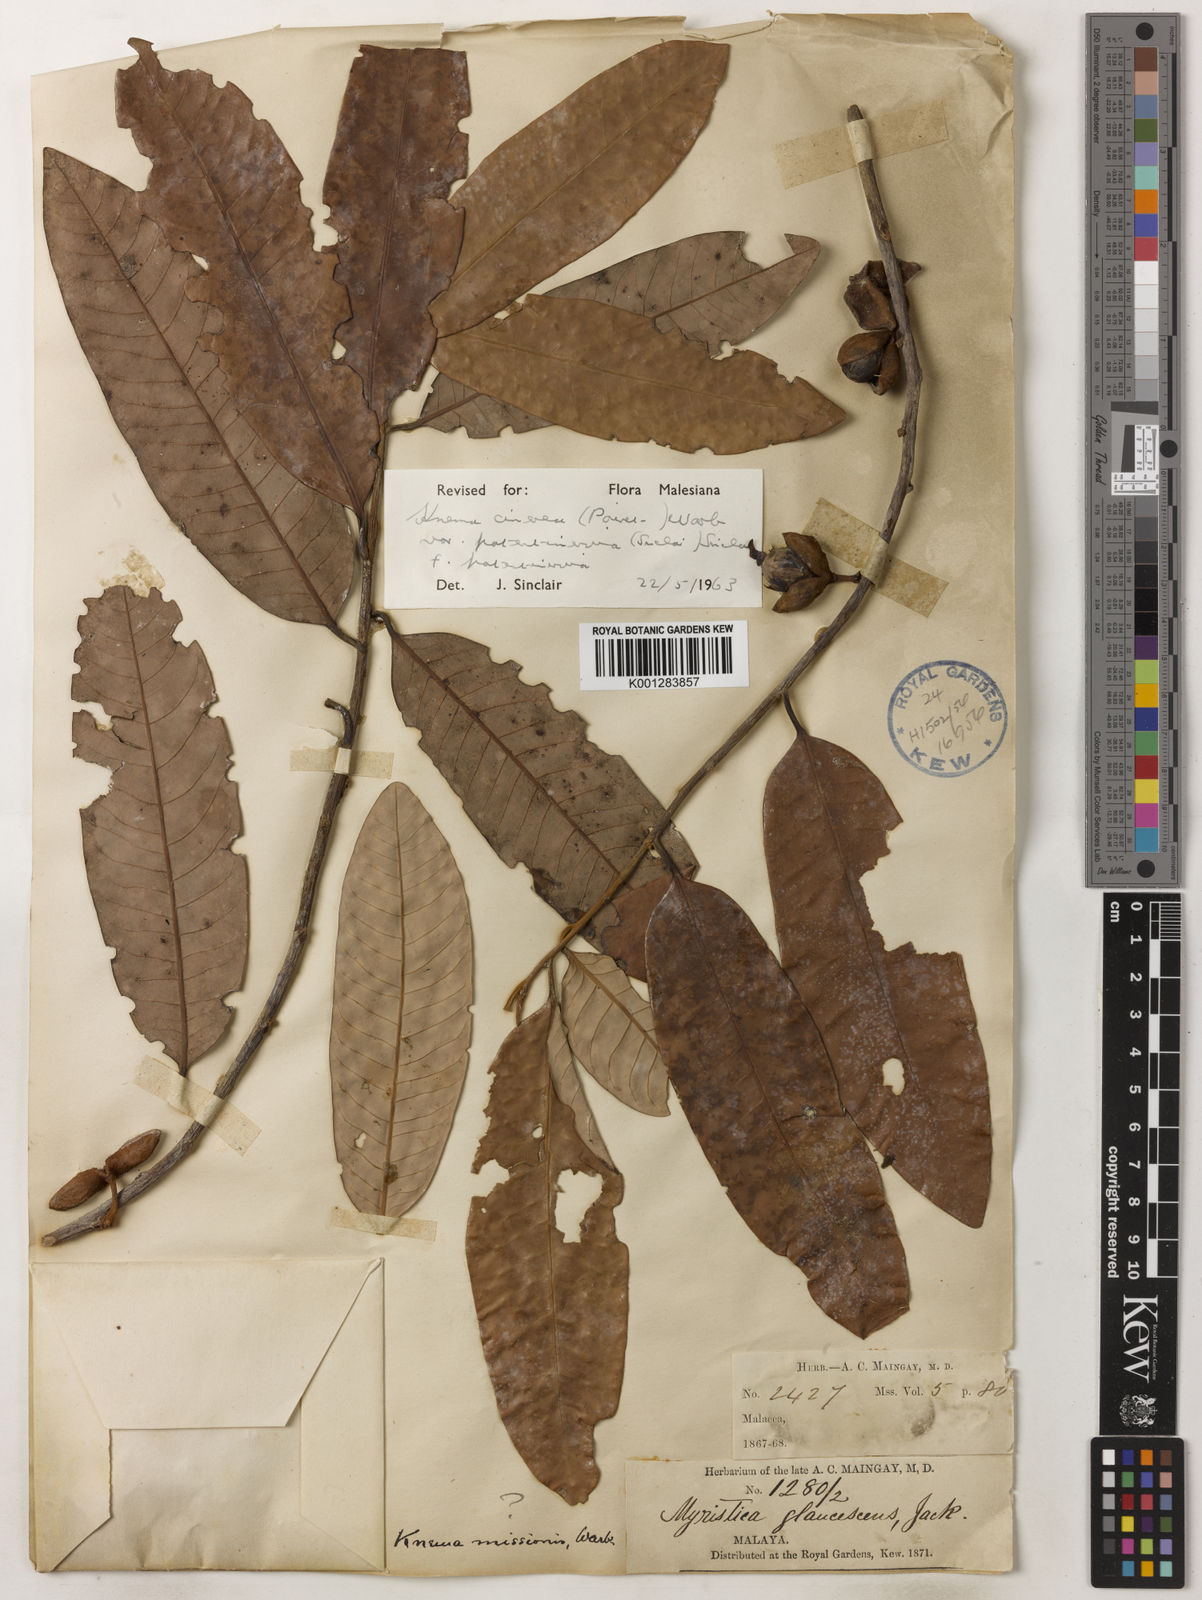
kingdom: Plantae
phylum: Tracheophyta
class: Magnoliopsida
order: Magnoliales
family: Myristicaceae
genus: Knema
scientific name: Knema
